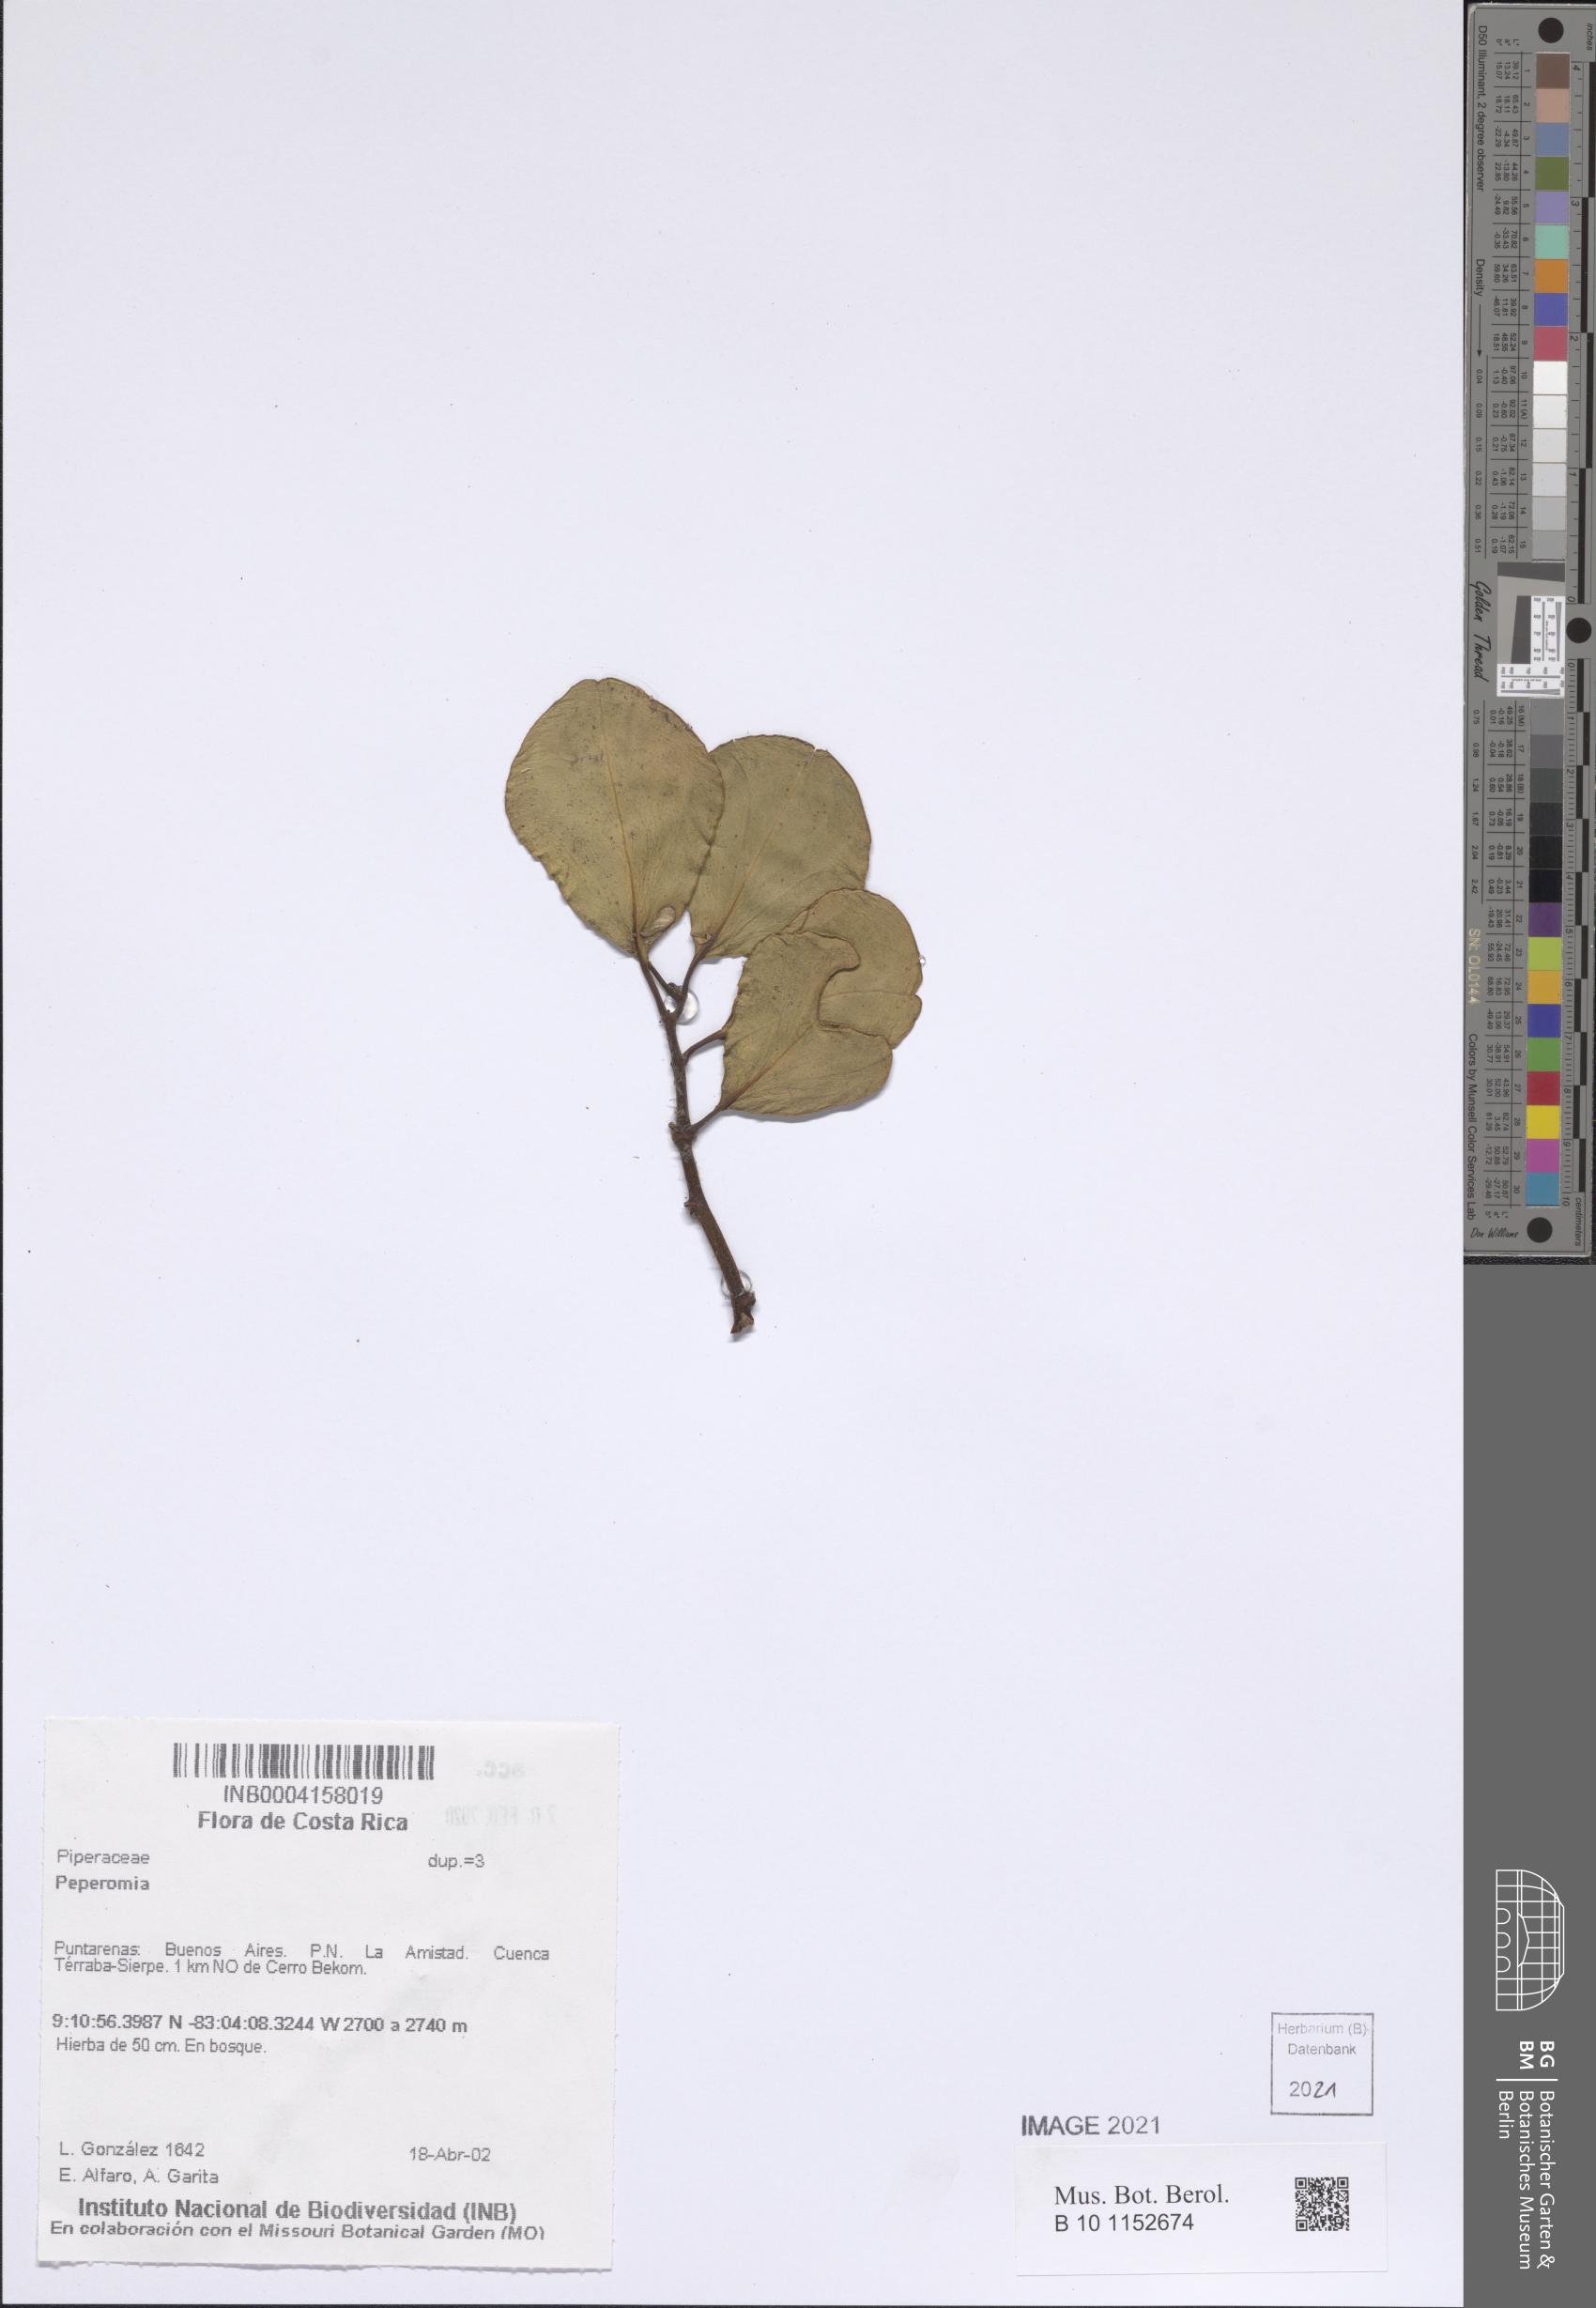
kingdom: Plantae
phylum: Tracheophyta
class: Magnoliopsida
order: Piperales
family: Piperaceae
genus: Peperomia
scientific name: Peperomia
